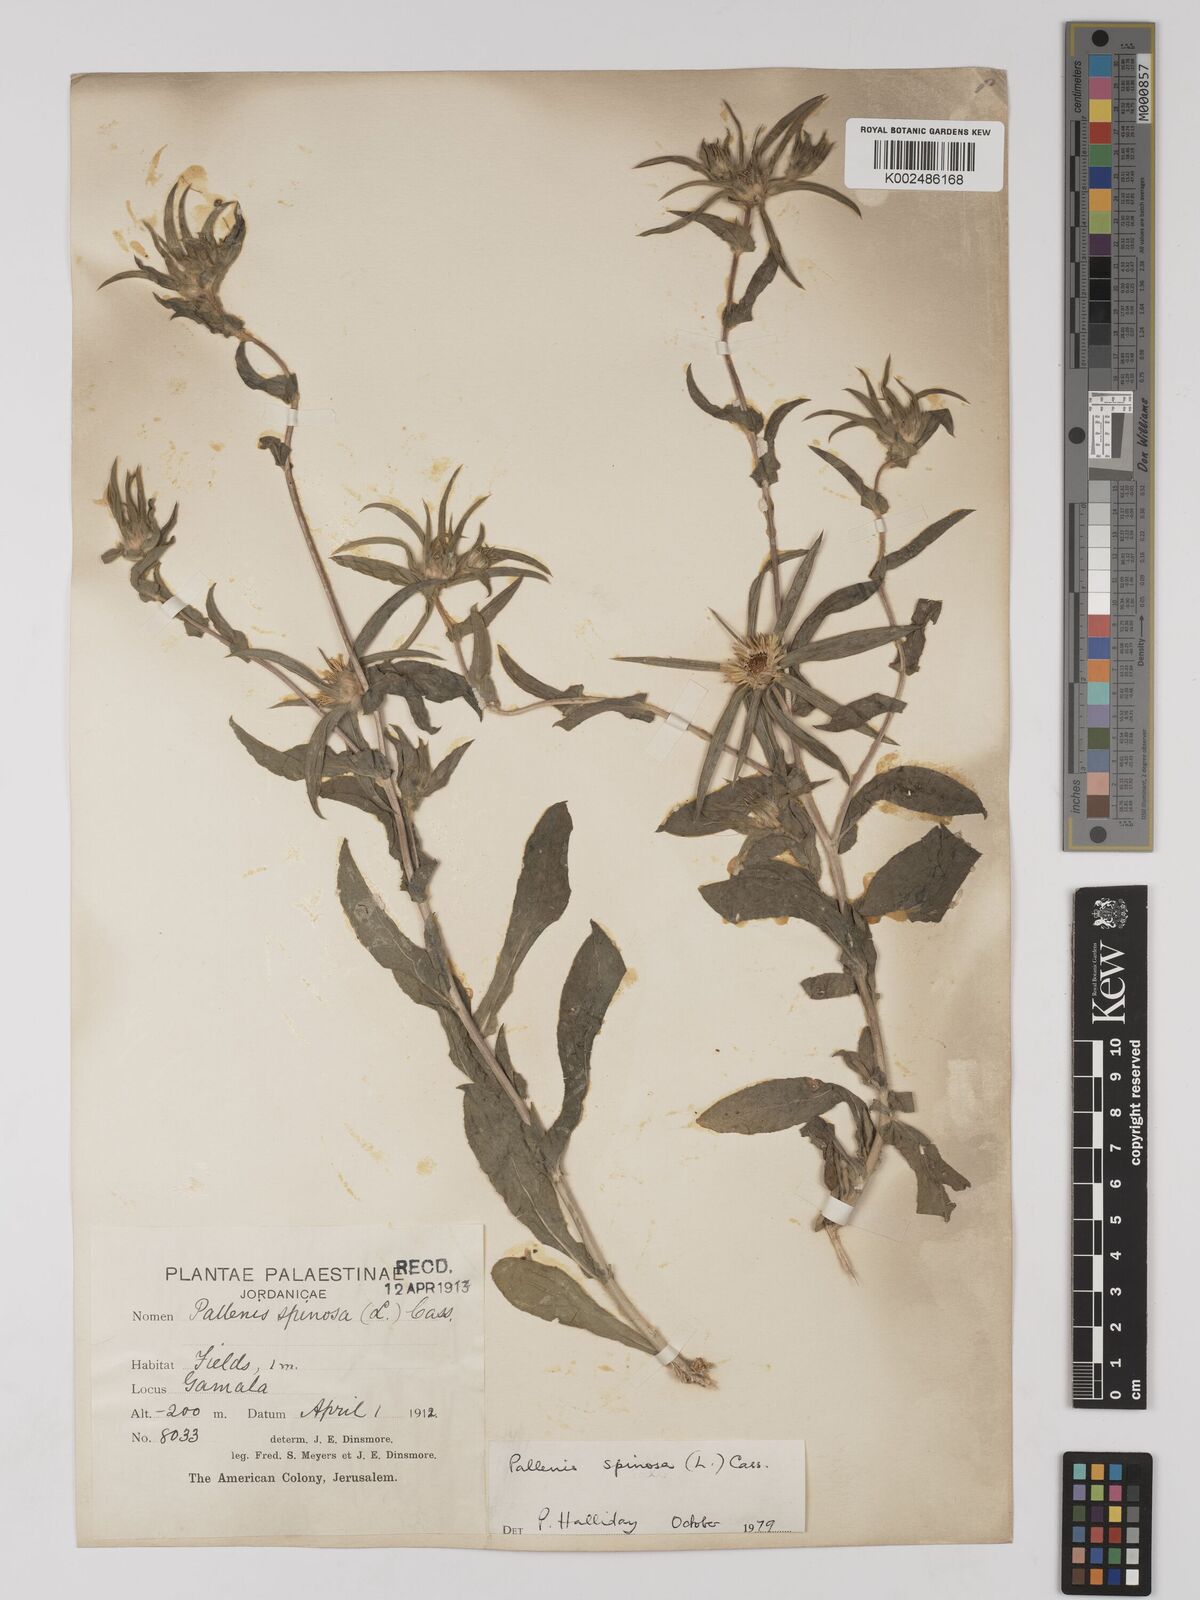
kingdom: Plantae
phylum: Tracheophyta
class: Magnoliopsida
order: Asterales
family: Asteraceae
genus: Pallenis
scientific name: Pallenis spinosa
